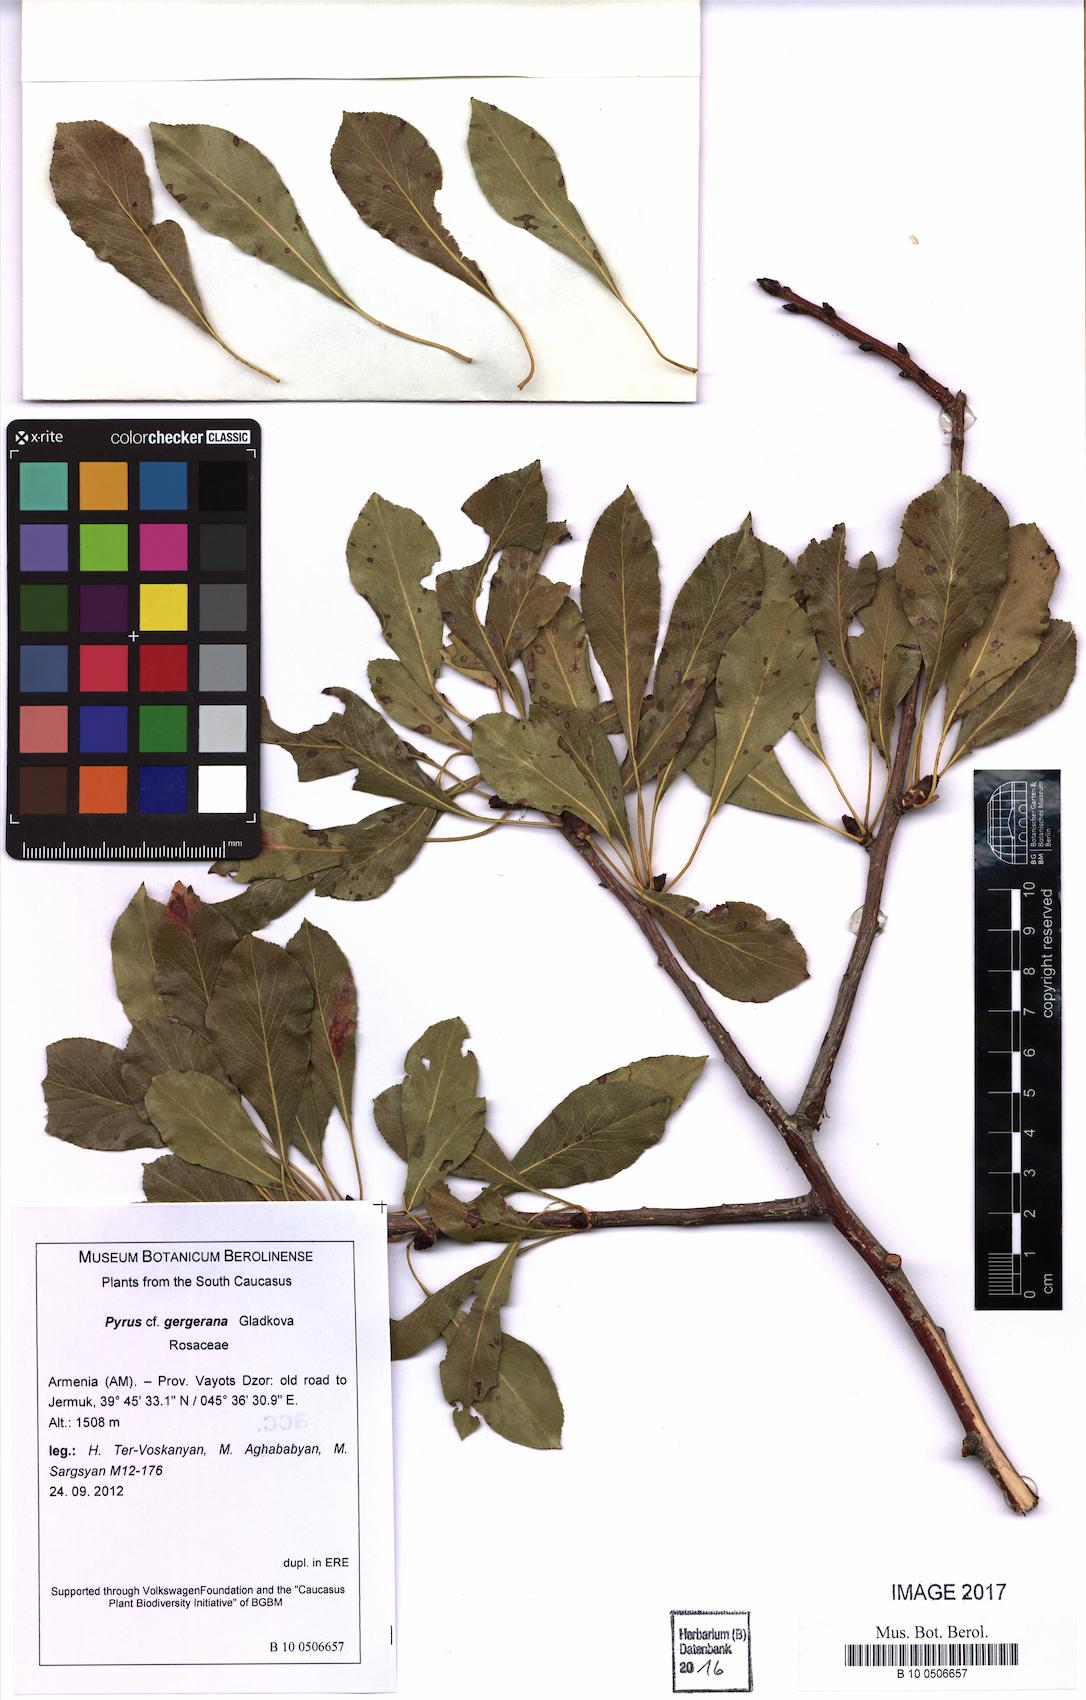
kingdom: Plantae
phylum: Tracheophyta
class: Magnoliopsida
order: Rosales
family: Rosaceae
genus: Pyrus
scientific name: Pyrus gergerana
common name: Gergeranian pear
